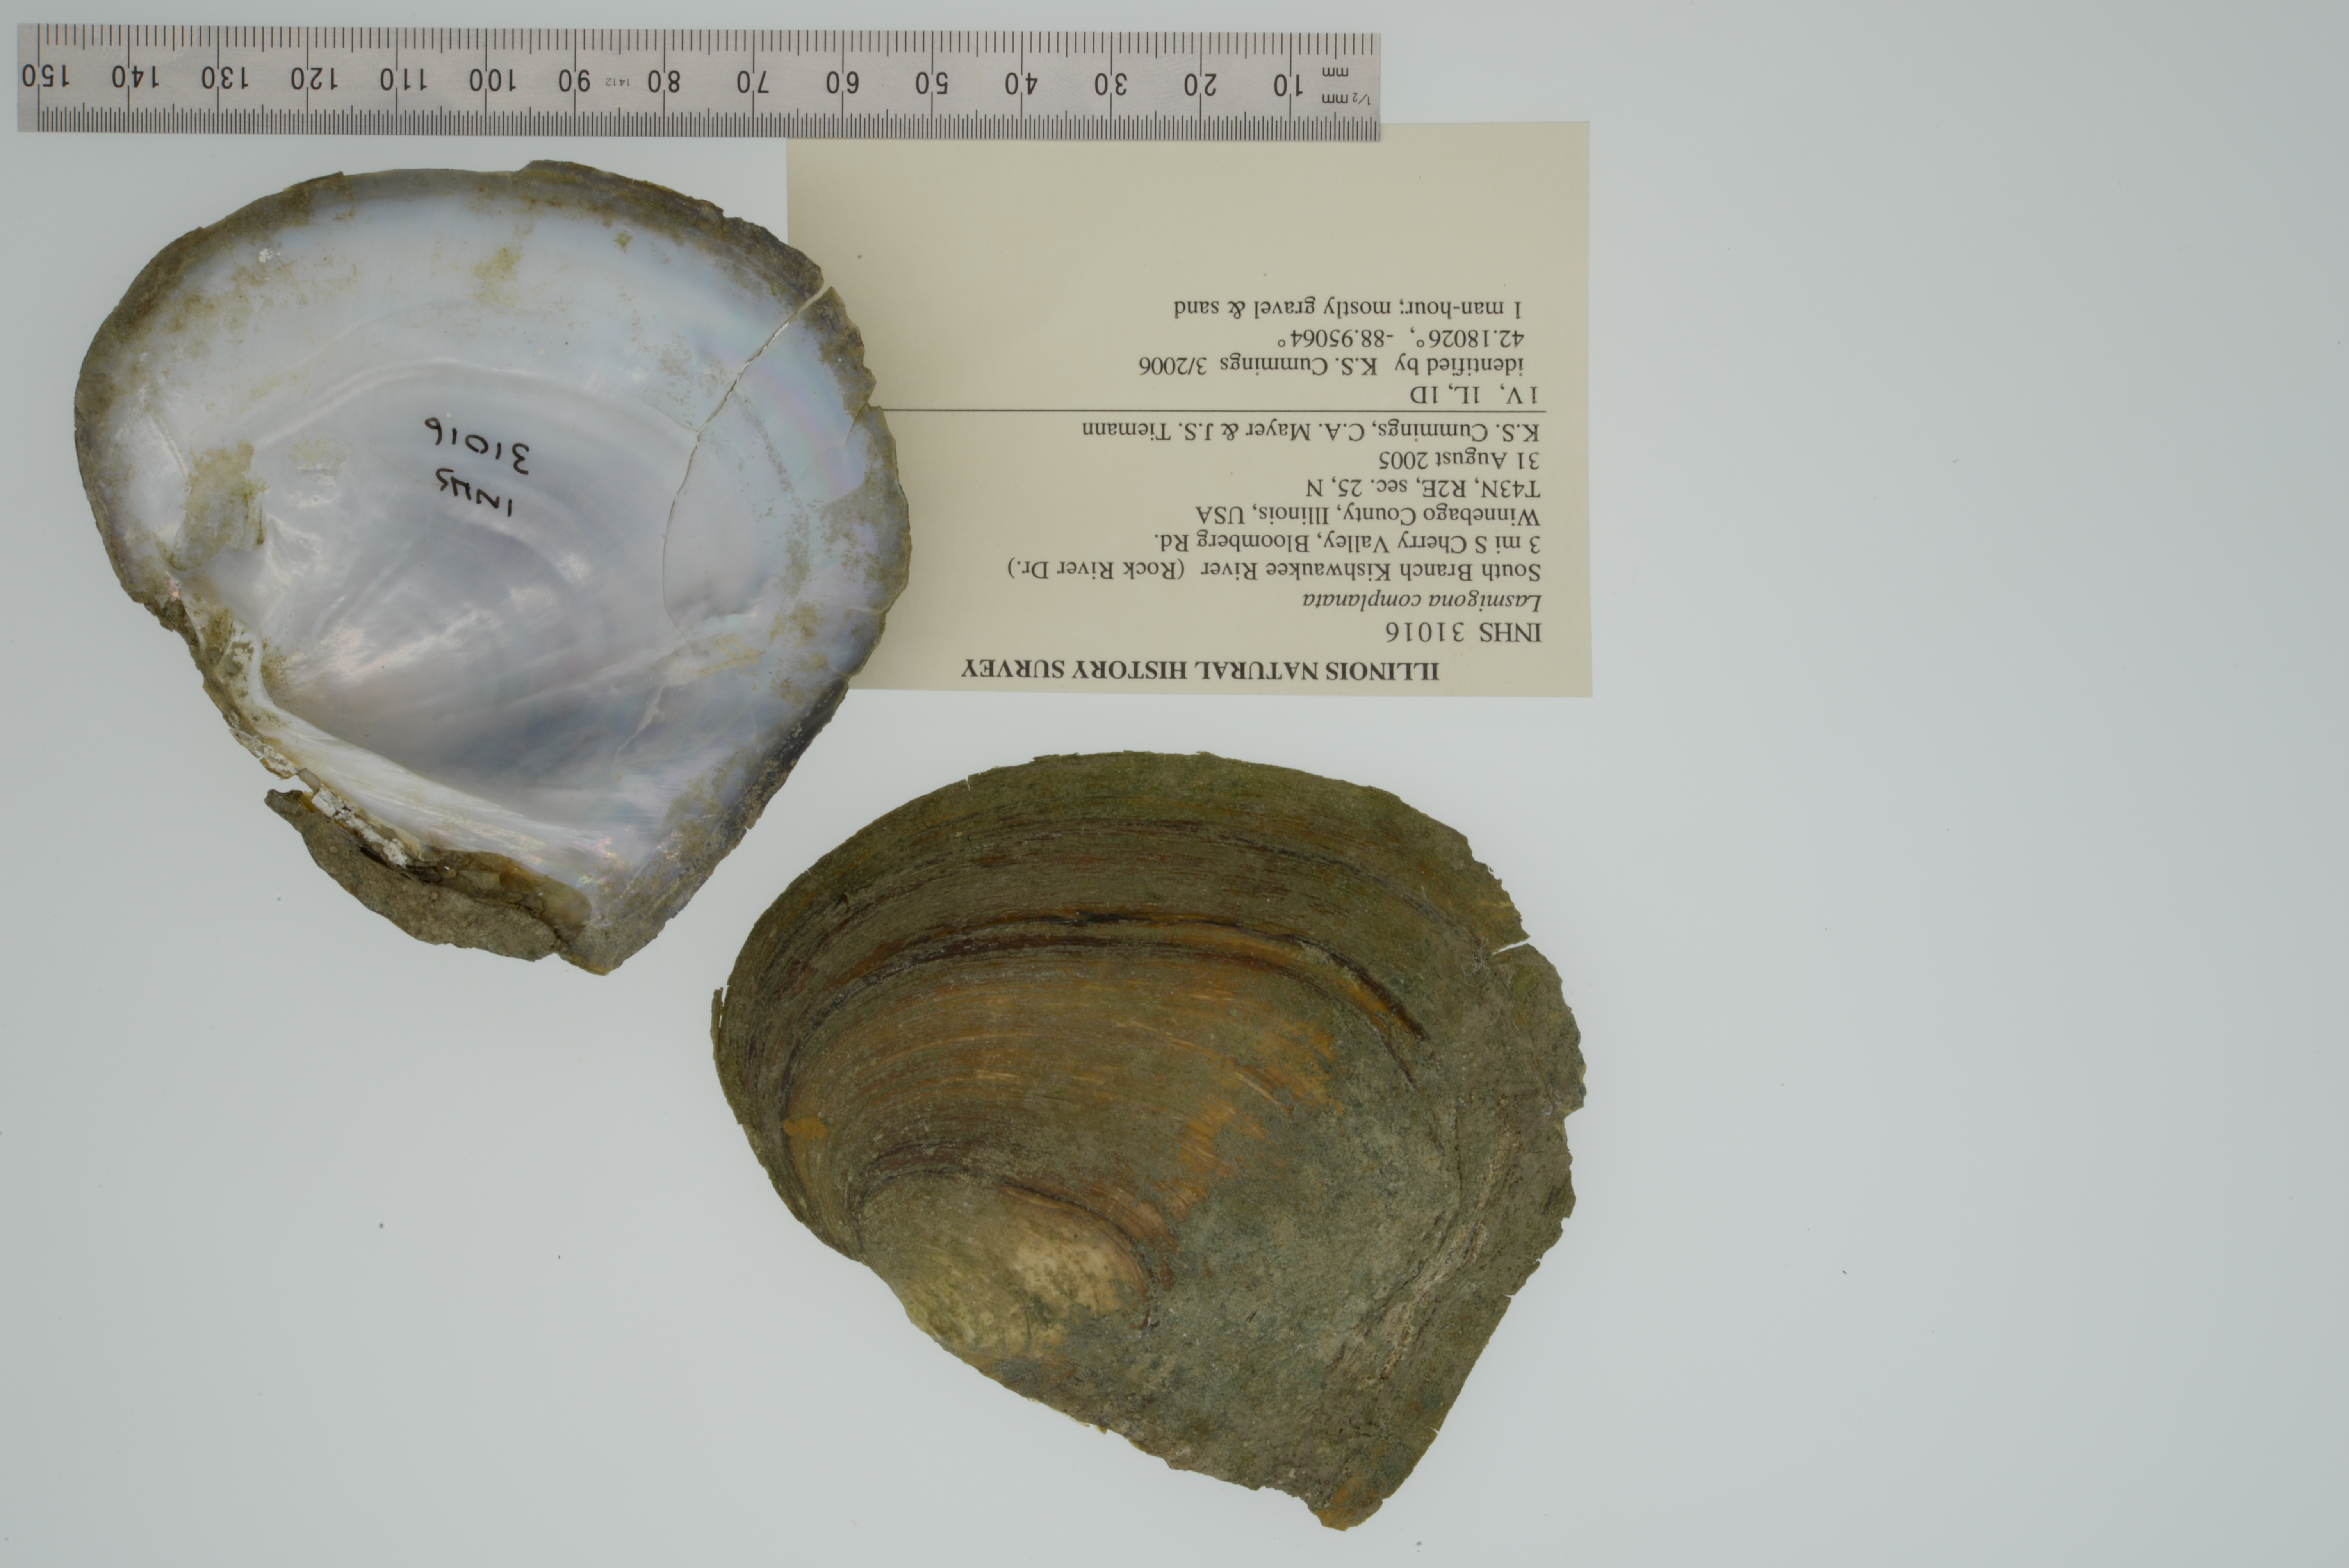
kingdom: Animalia
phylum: Mollusca
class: Bivalvia
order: Unionida
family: Unionidae
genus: Lasmigona
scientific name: Lasmigona complanata
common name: White heelsplitter
